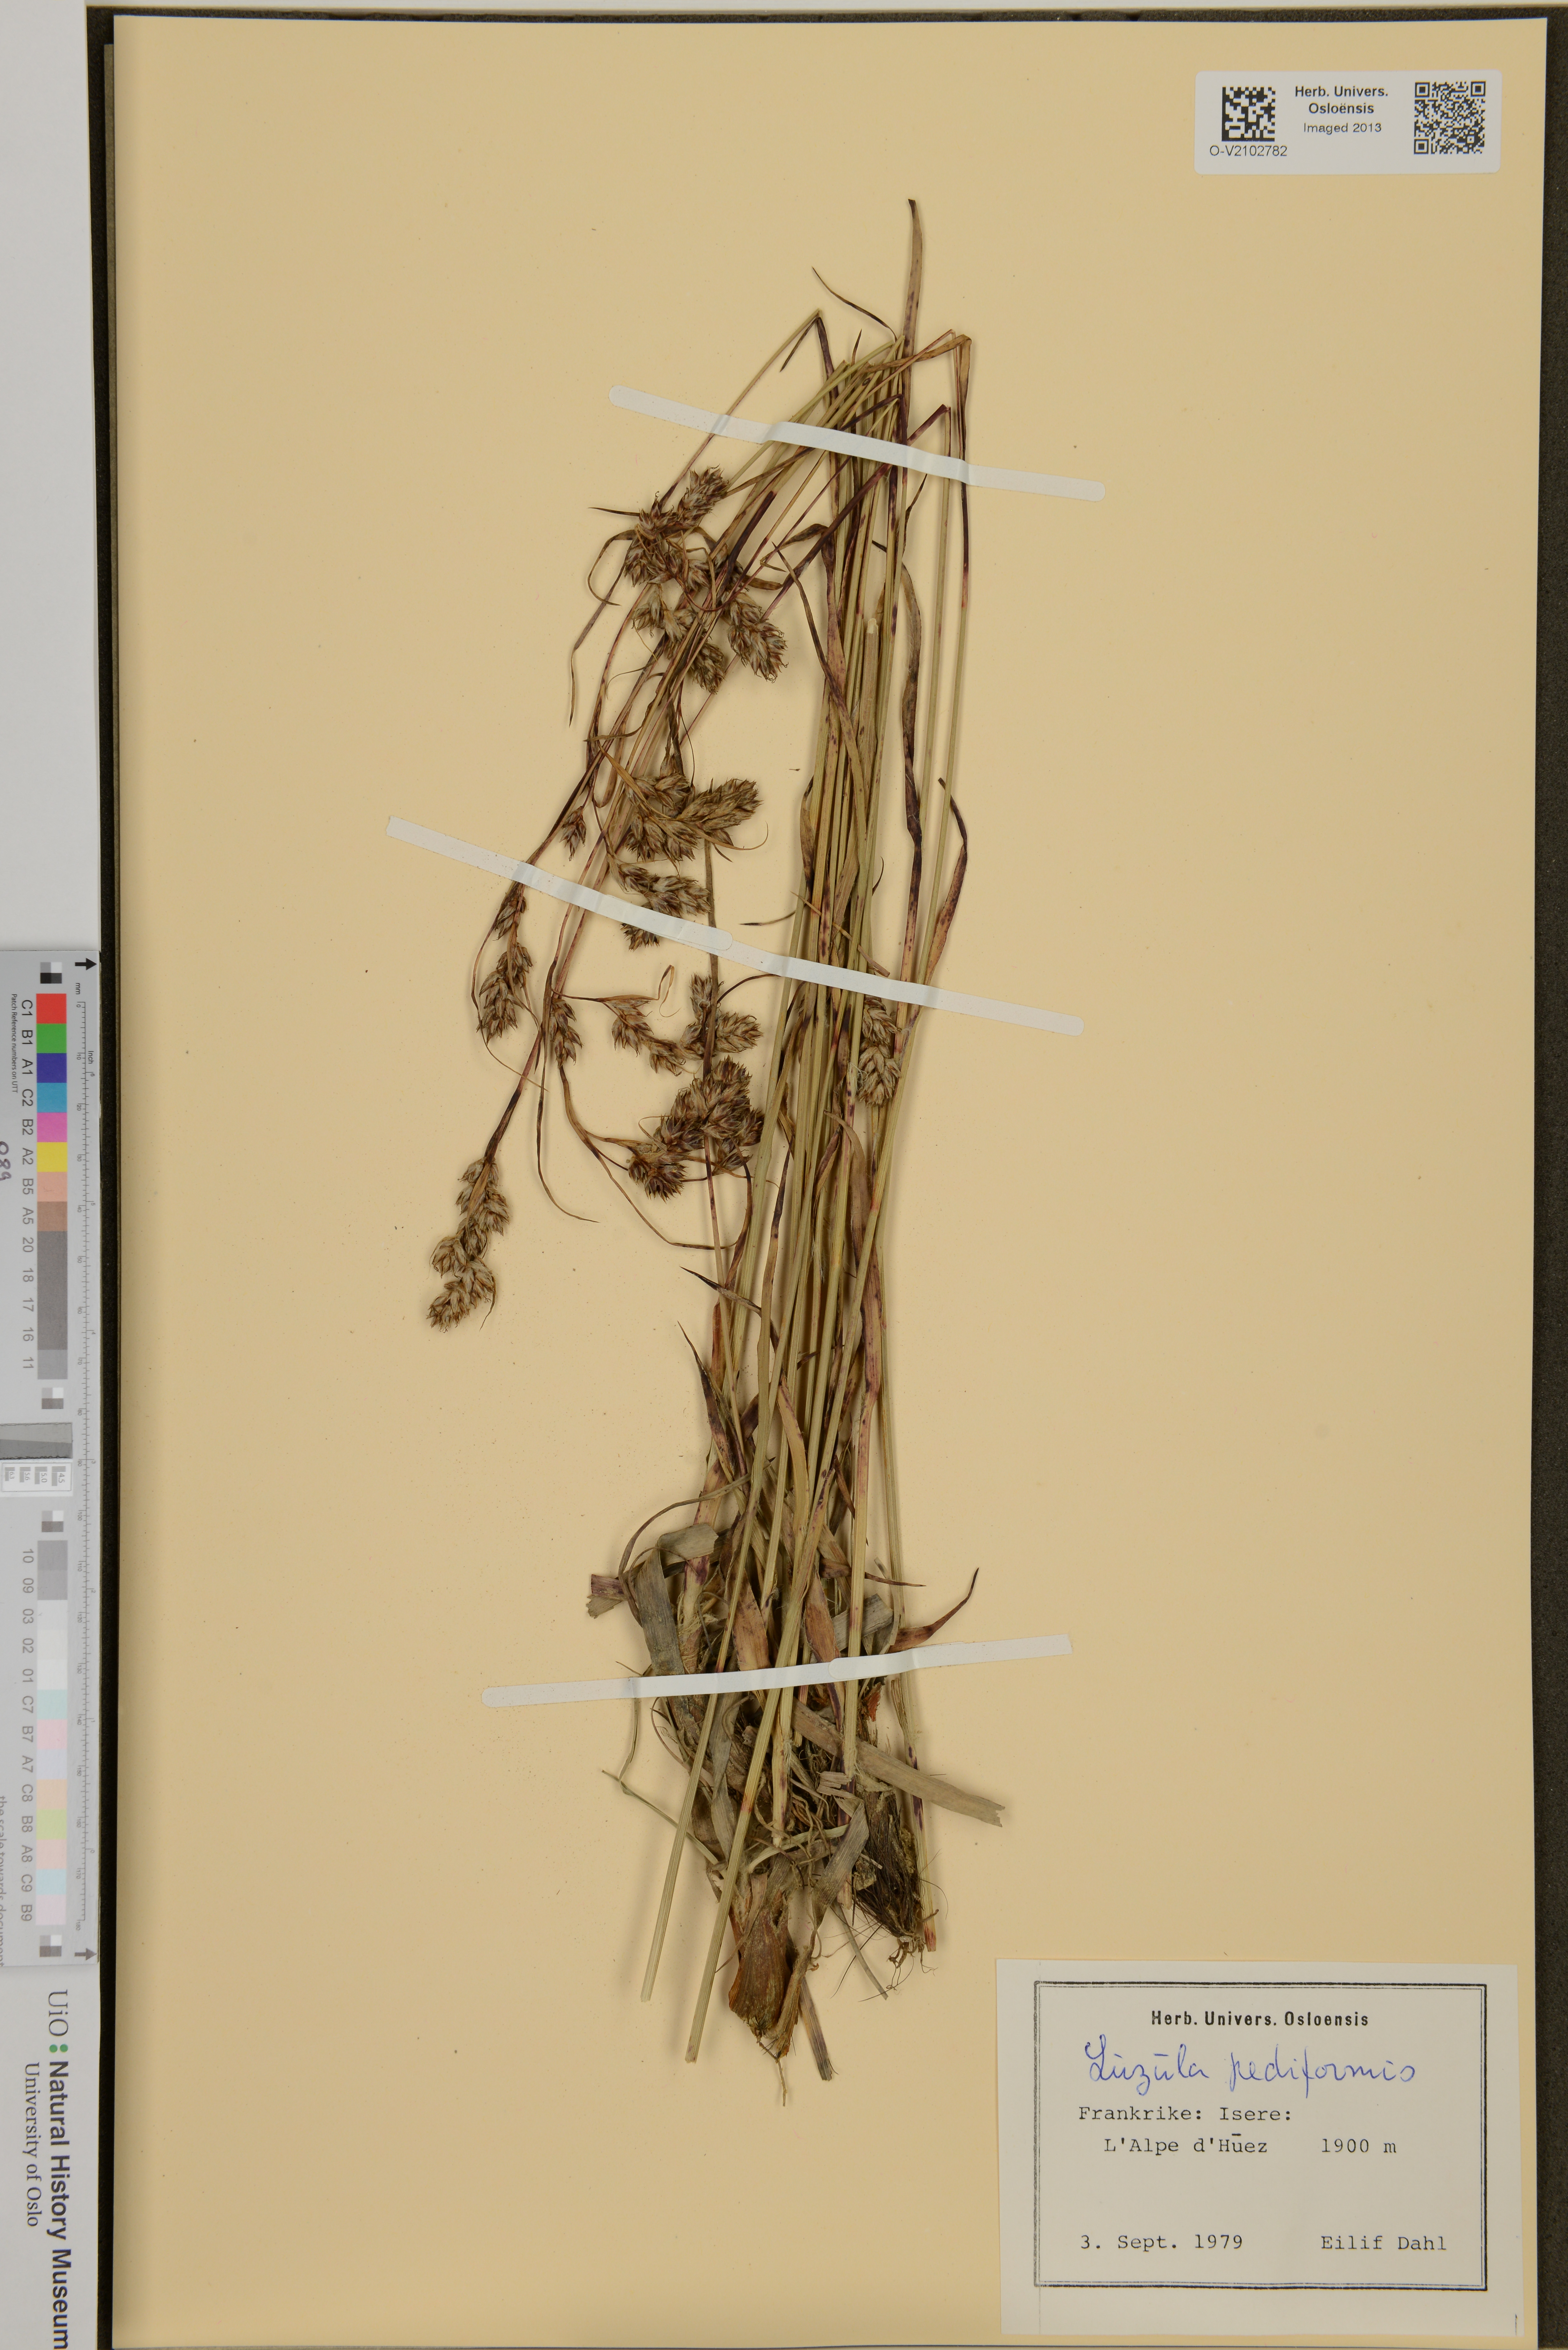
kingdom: Plantae
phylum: Tracheophyta
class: Liliopsida
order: Poales
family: Juncaceae
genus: Luzula
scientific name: Luzula pediformis
